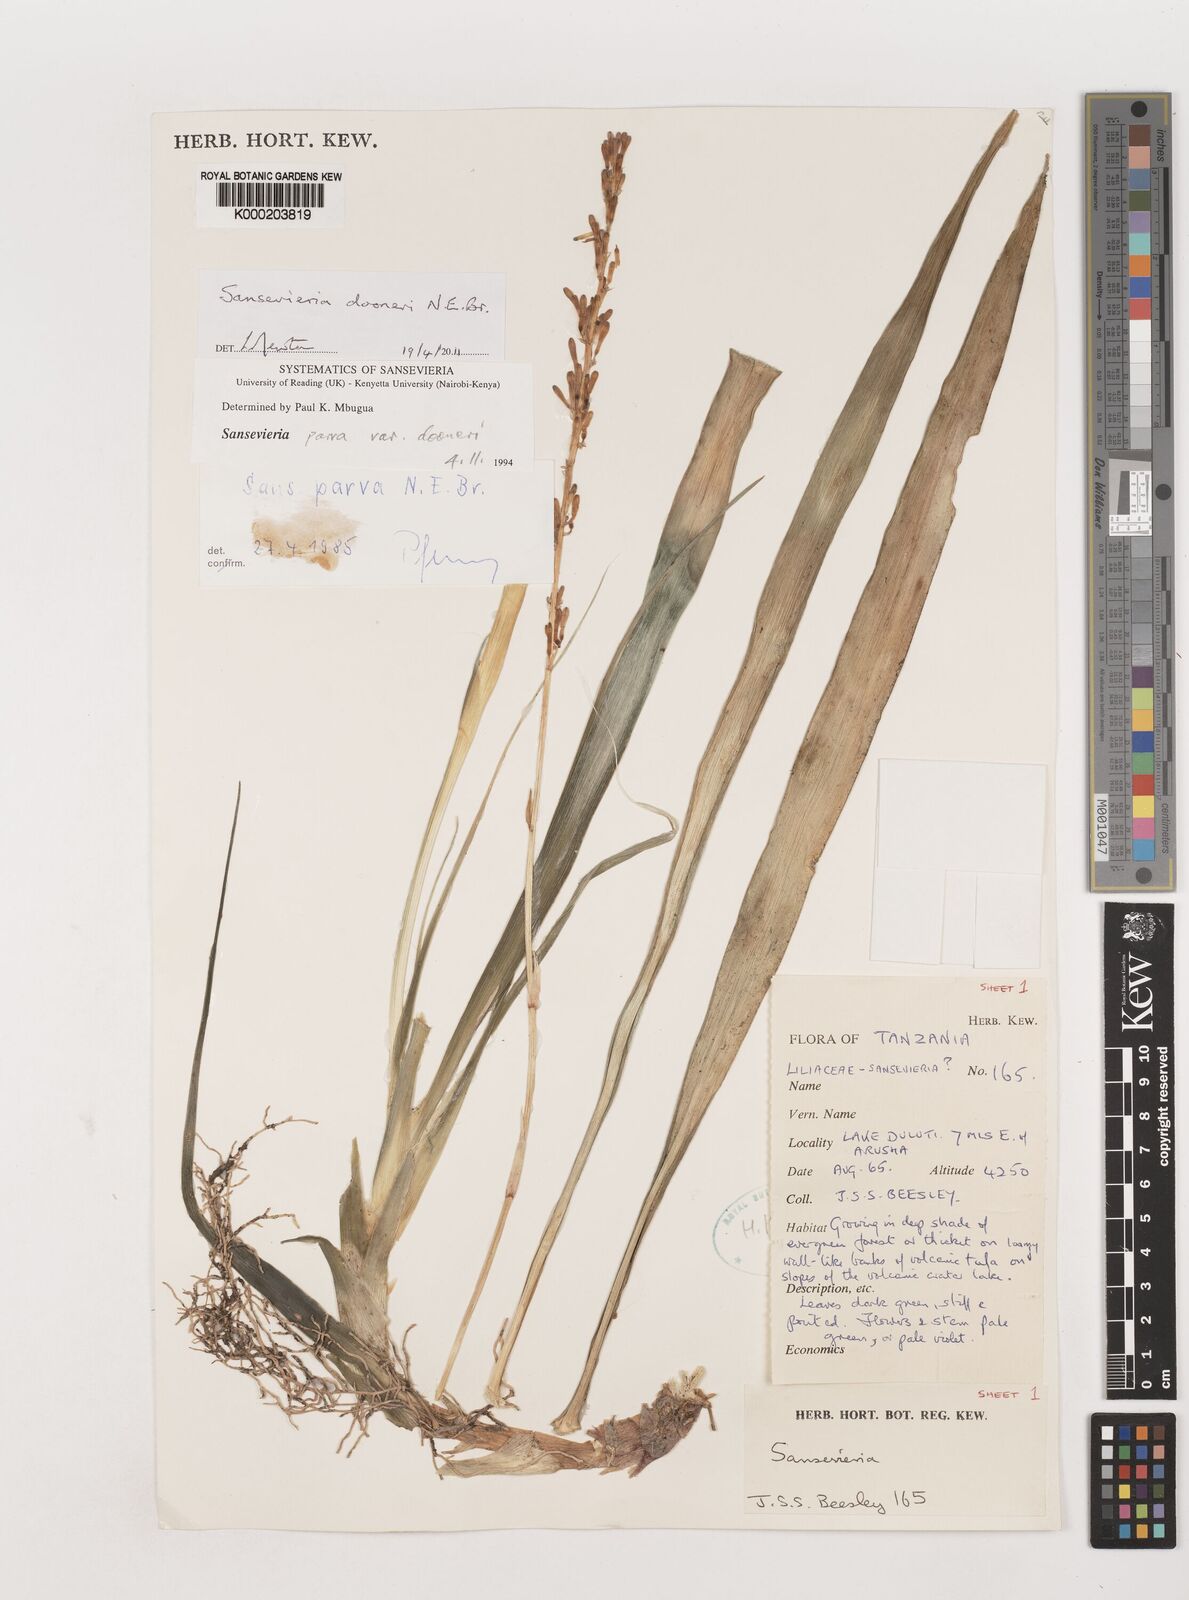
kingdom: Plantae
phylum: Tracheophyta
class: Liliopsida
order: Asparagales
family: Asparagaceae
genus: Dracaena
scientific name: Dracaena parva
